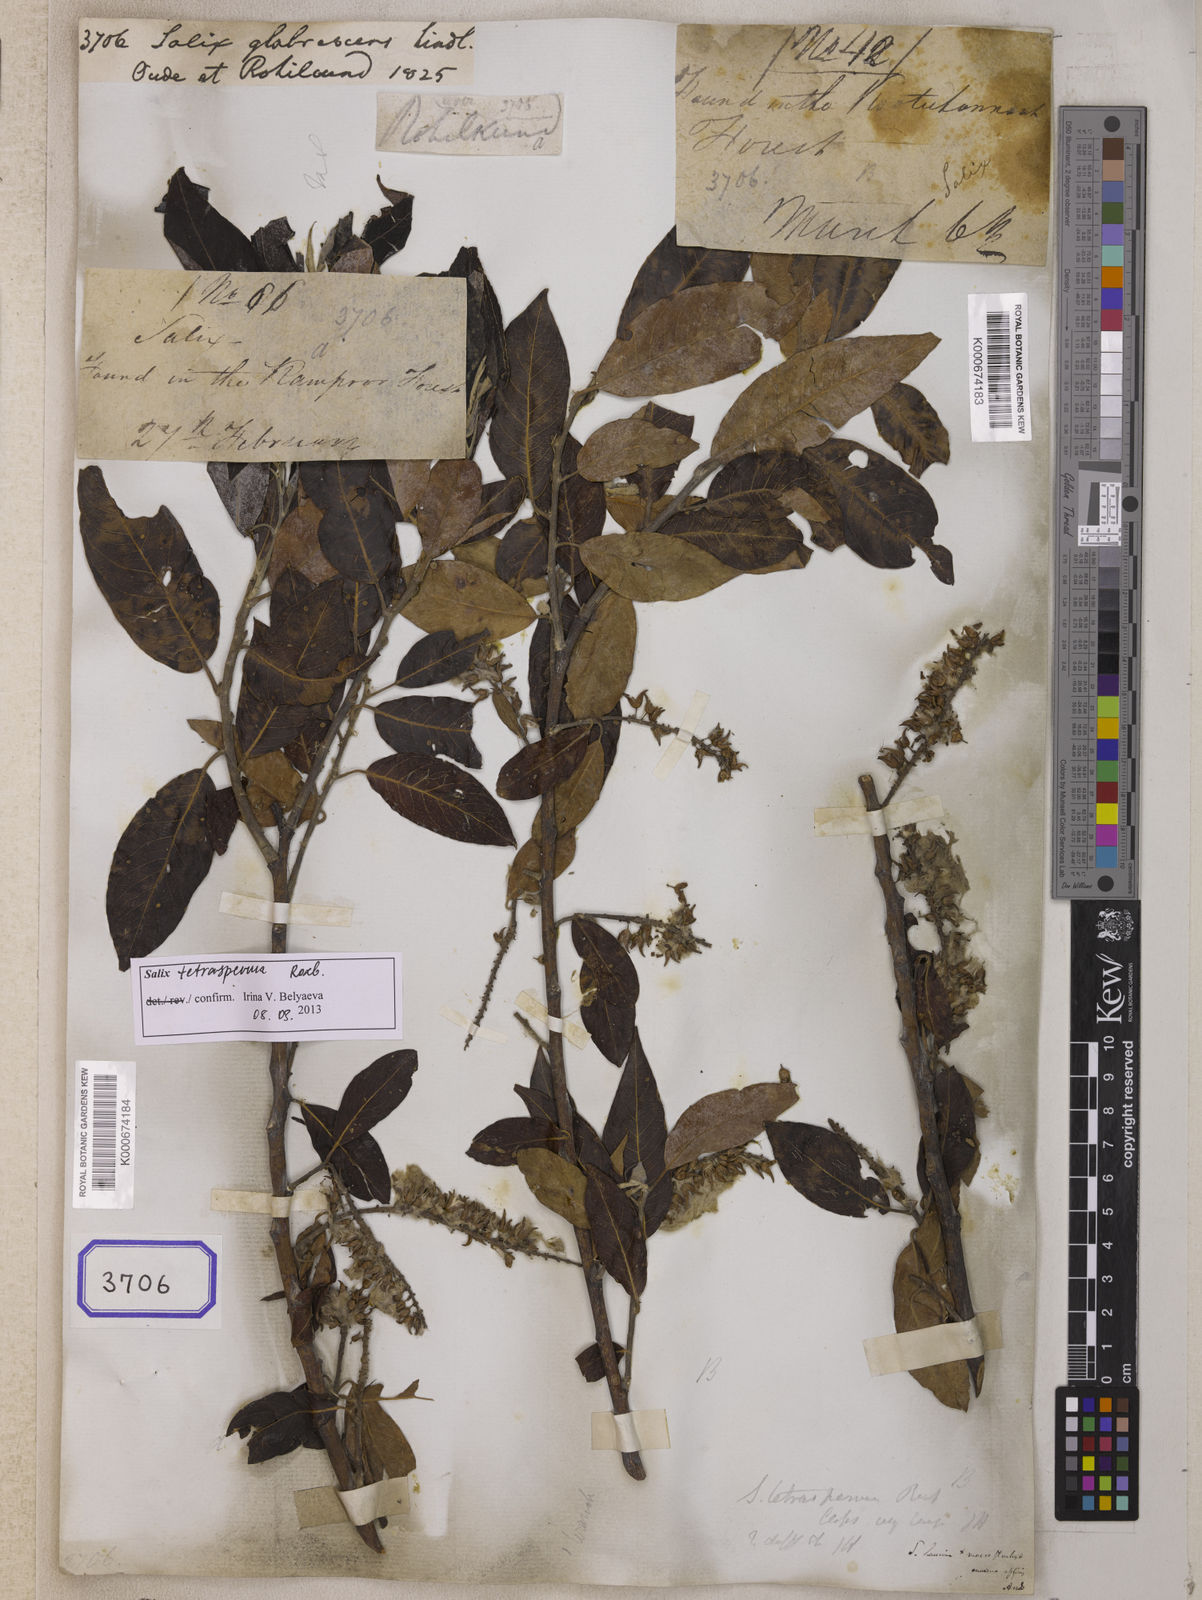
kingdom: Plantae
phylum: Tracheophyta
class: Magnoliopsida
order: Malpighiales
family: Salicaceae
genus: Salix
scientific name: Salix
